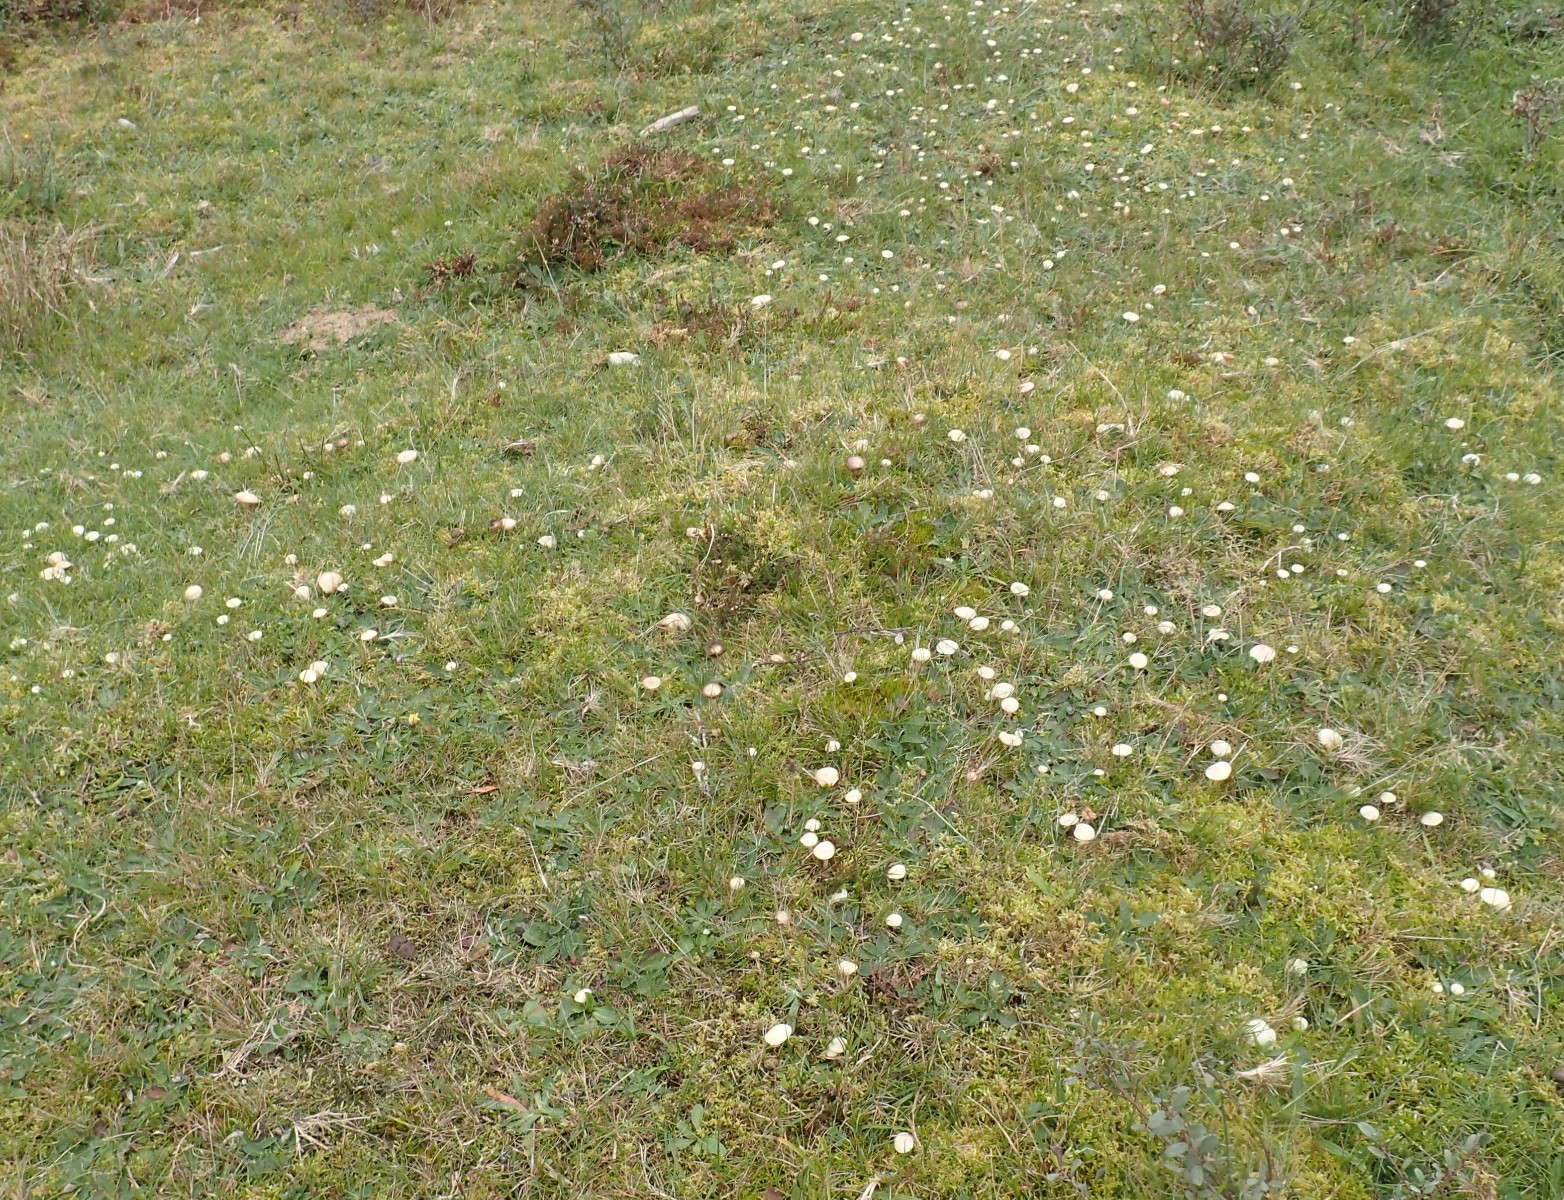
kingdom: Fungi
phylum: Basidiomycota
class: Agaricomycetes
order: Agaricales
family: Hygrophoraceae
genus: Cuphophyllus
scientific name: Cuphophyllus virgineus
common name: snehvid vokshat
